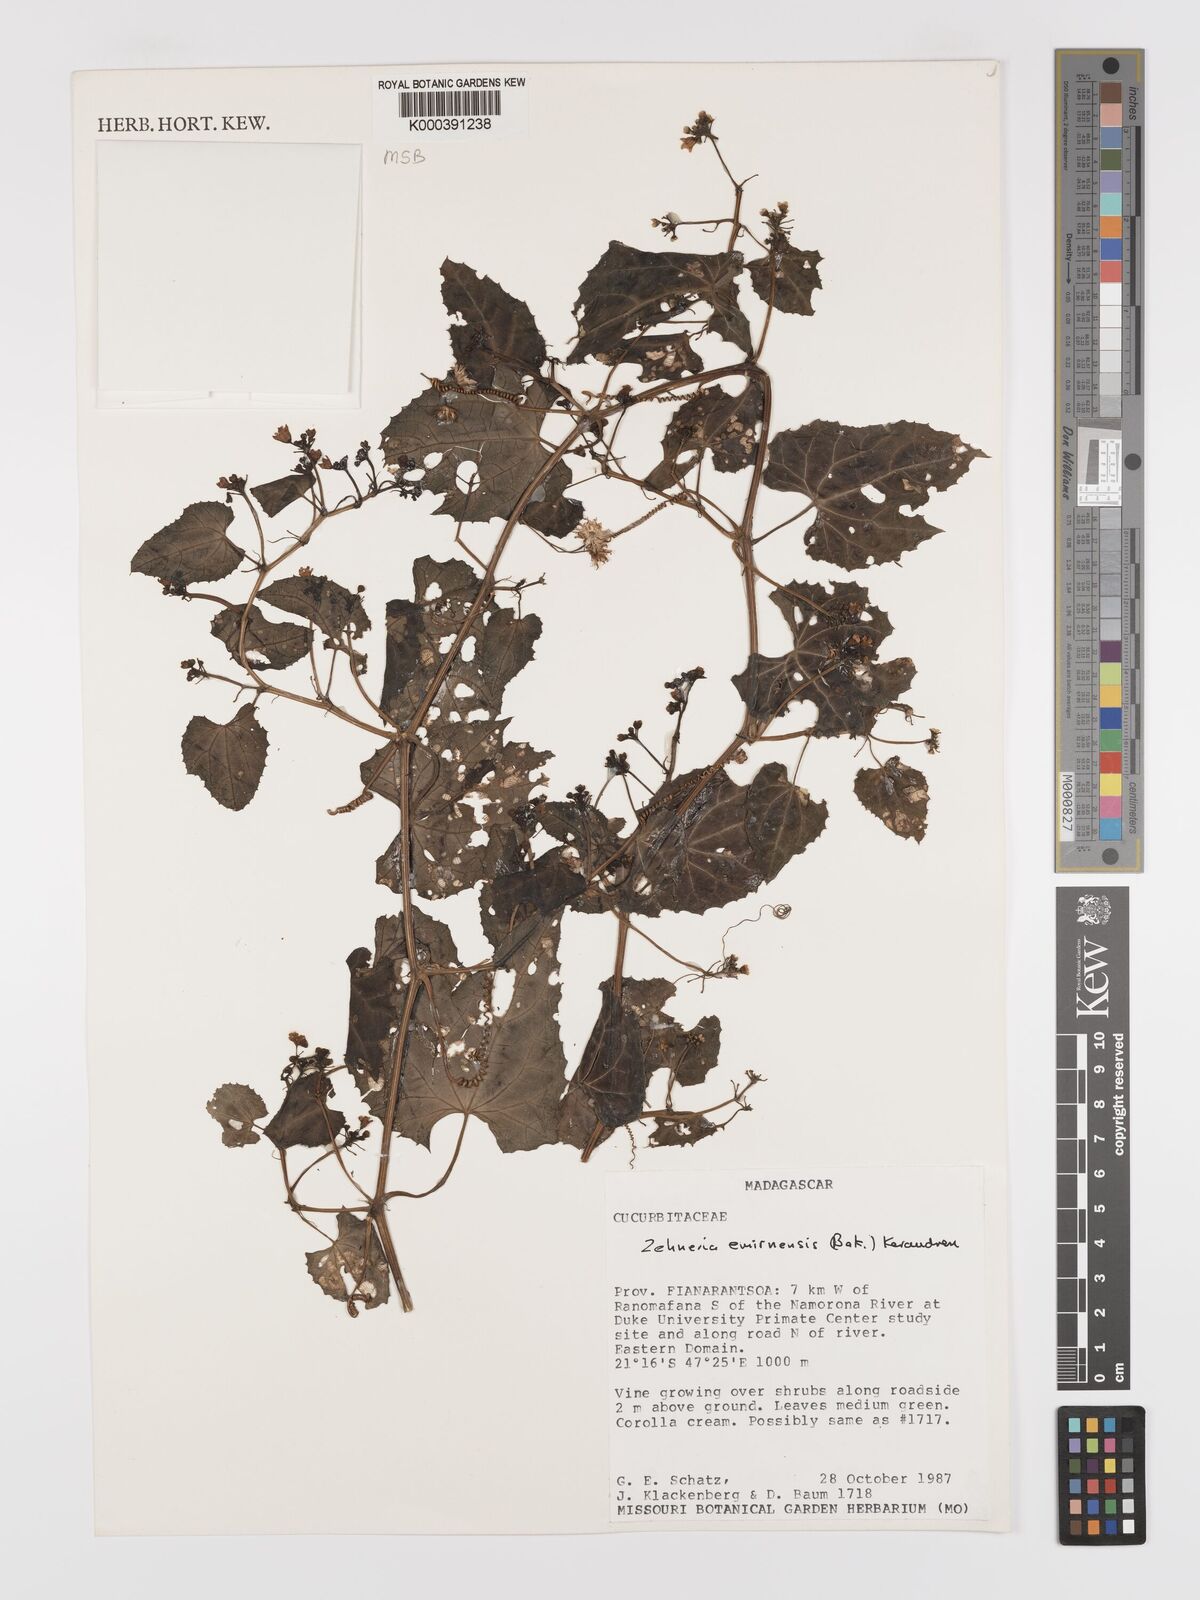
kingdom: Plantae
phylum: Tracheophyta
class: Magnoliopsida
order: Cucurbitales
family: Cucurbitaceae
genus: Zehneria
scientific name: Zehneria emirnensis
